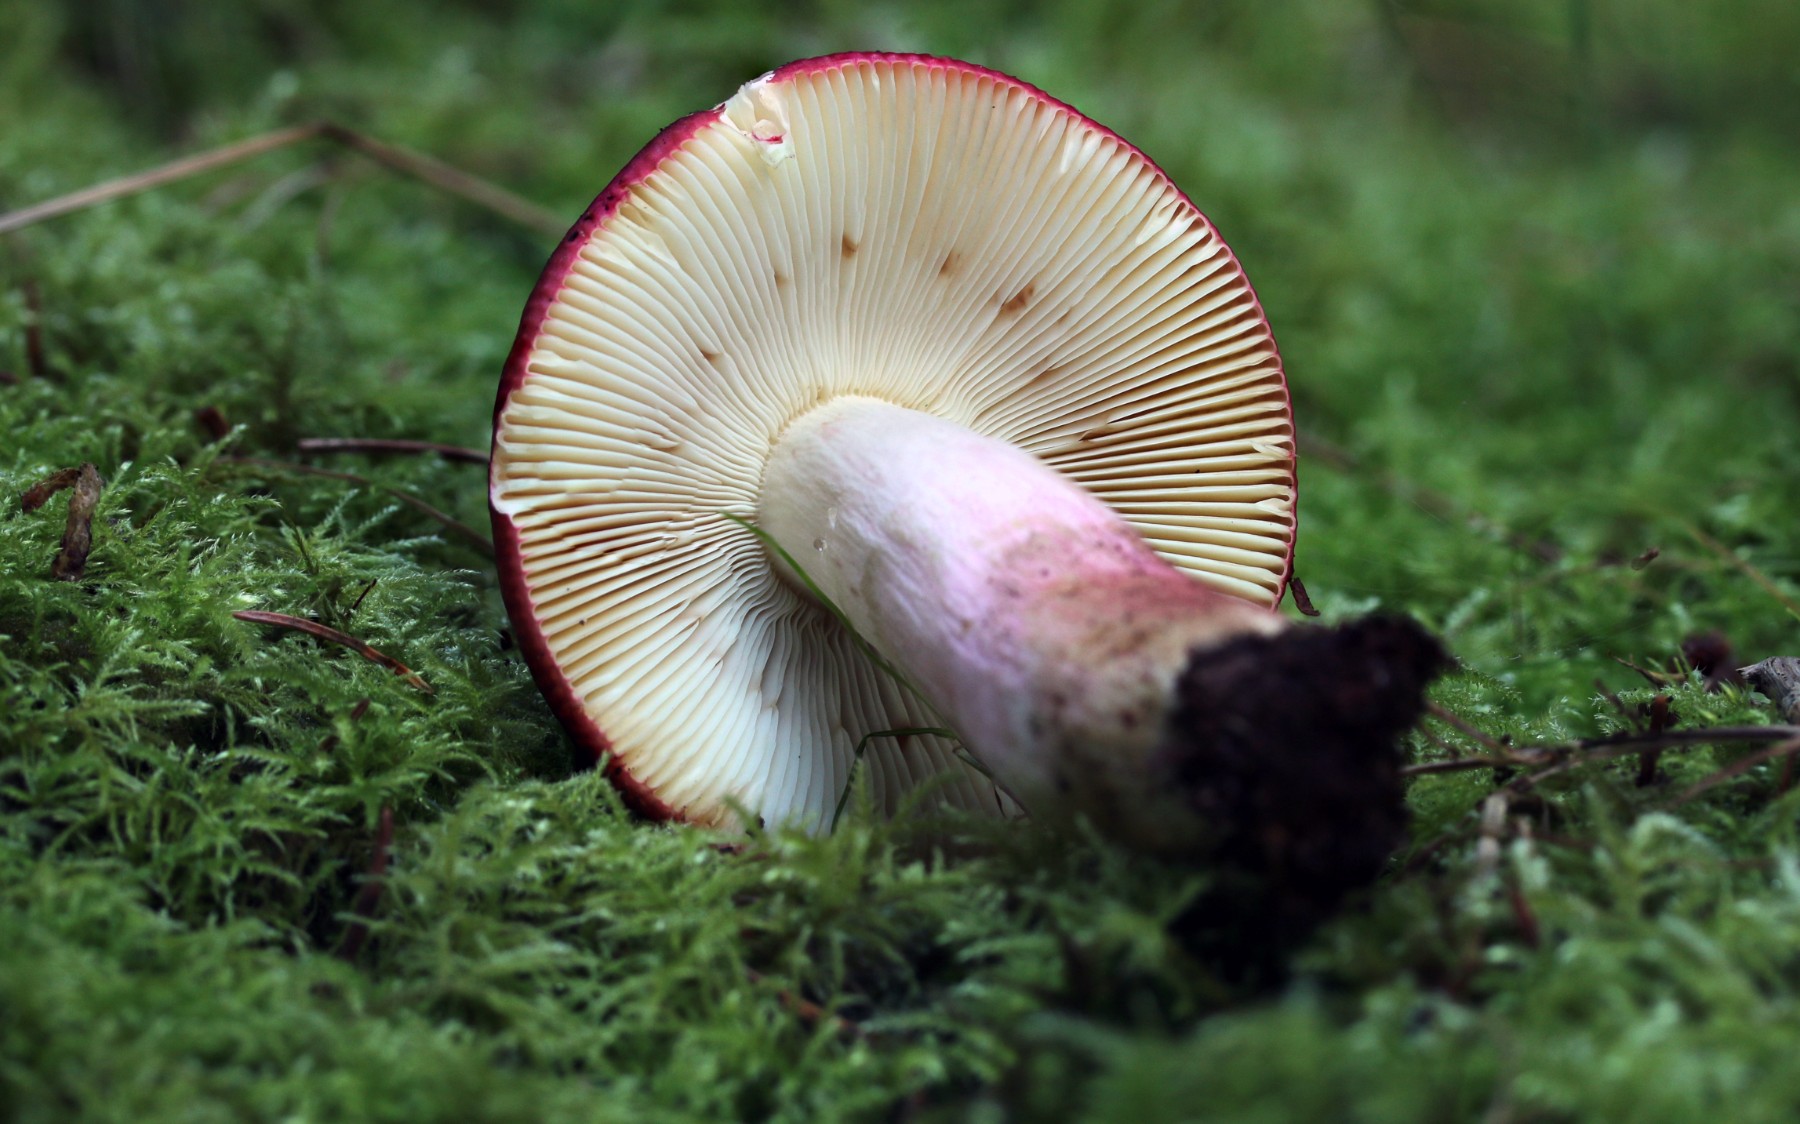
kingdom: Fungi
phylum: Basidiomycota
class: Agaricomycetes
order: Russulales
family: Russulaceae
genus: Russula
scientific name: Russula xerampelina
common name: hummer-skørhat
